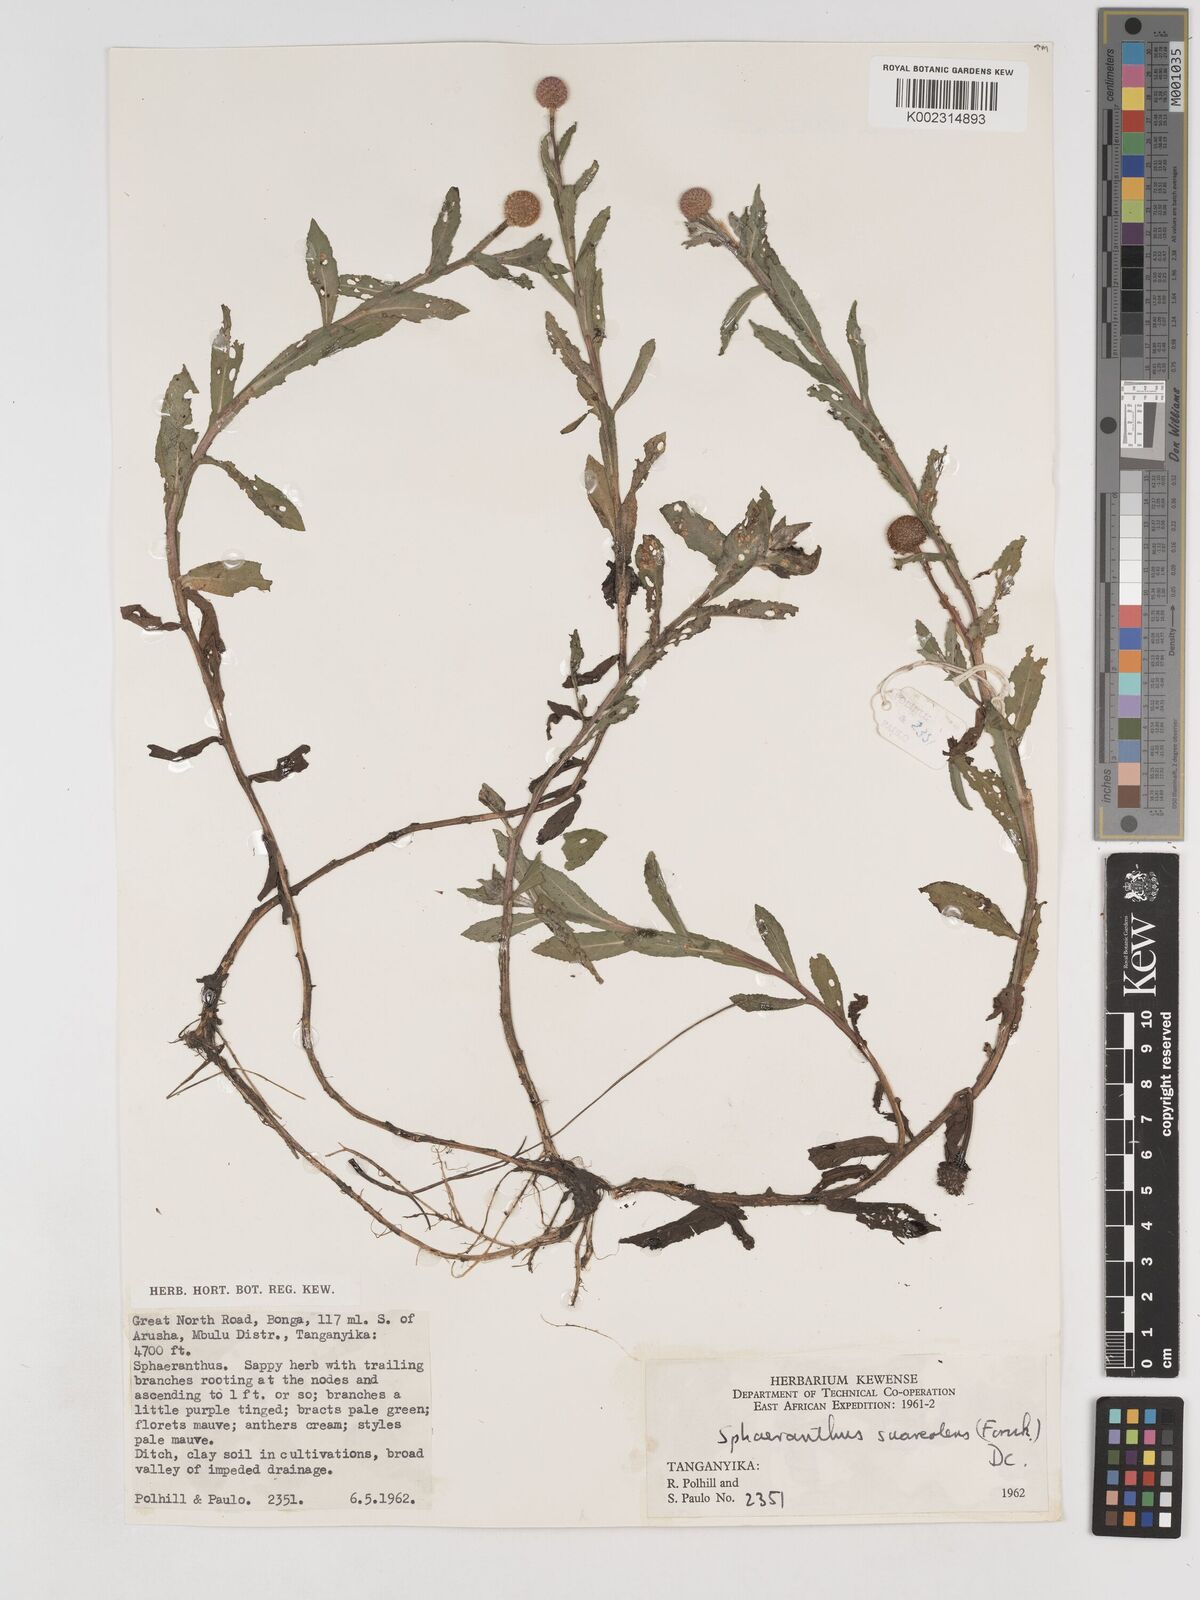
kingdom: Plantae
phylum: Tracheophyta
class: Magnoliopsida
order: Asterales
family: Asteraceae
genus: Sphaeranthus
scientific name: Sphaeranthus suaveolens
